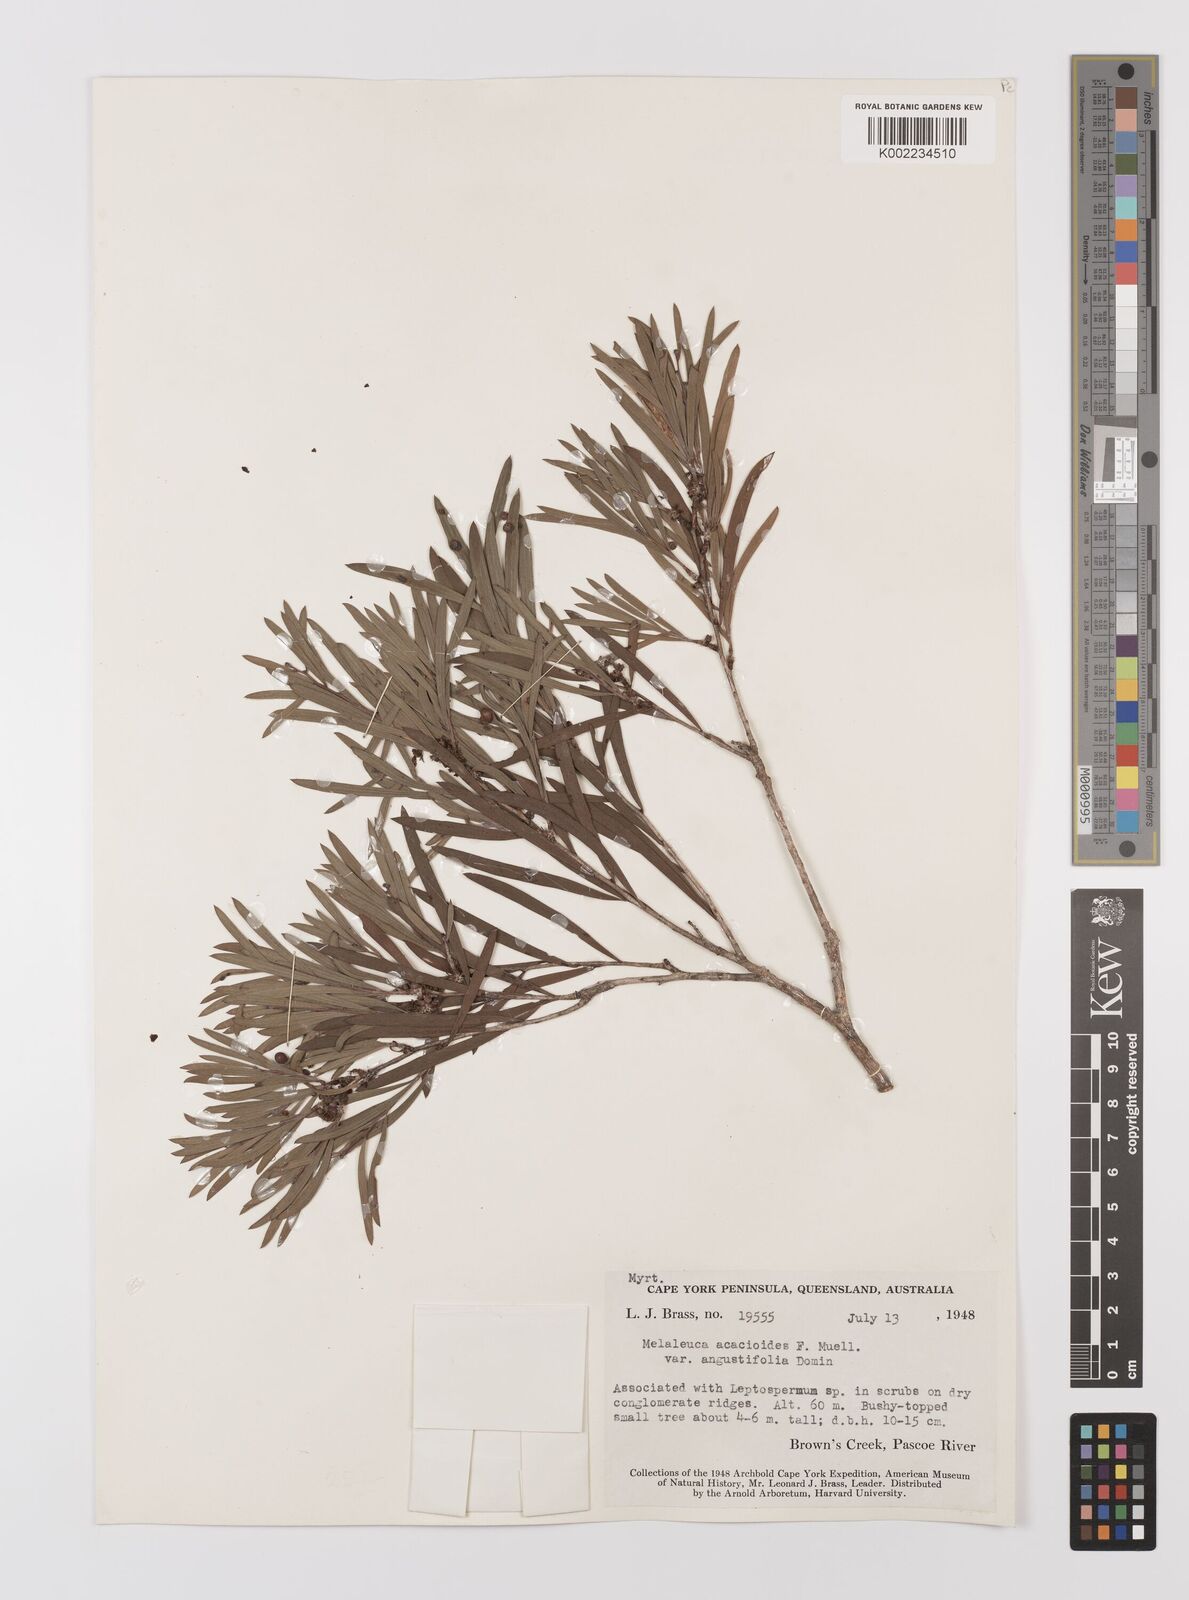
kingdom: Plantae
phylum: Tracheophyta
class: Magnoliopsida
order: Myrtales
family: Myrtaceae
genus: Melaleuca
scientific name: Melaleuca citrolens
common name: Lemon-scented paperbark
